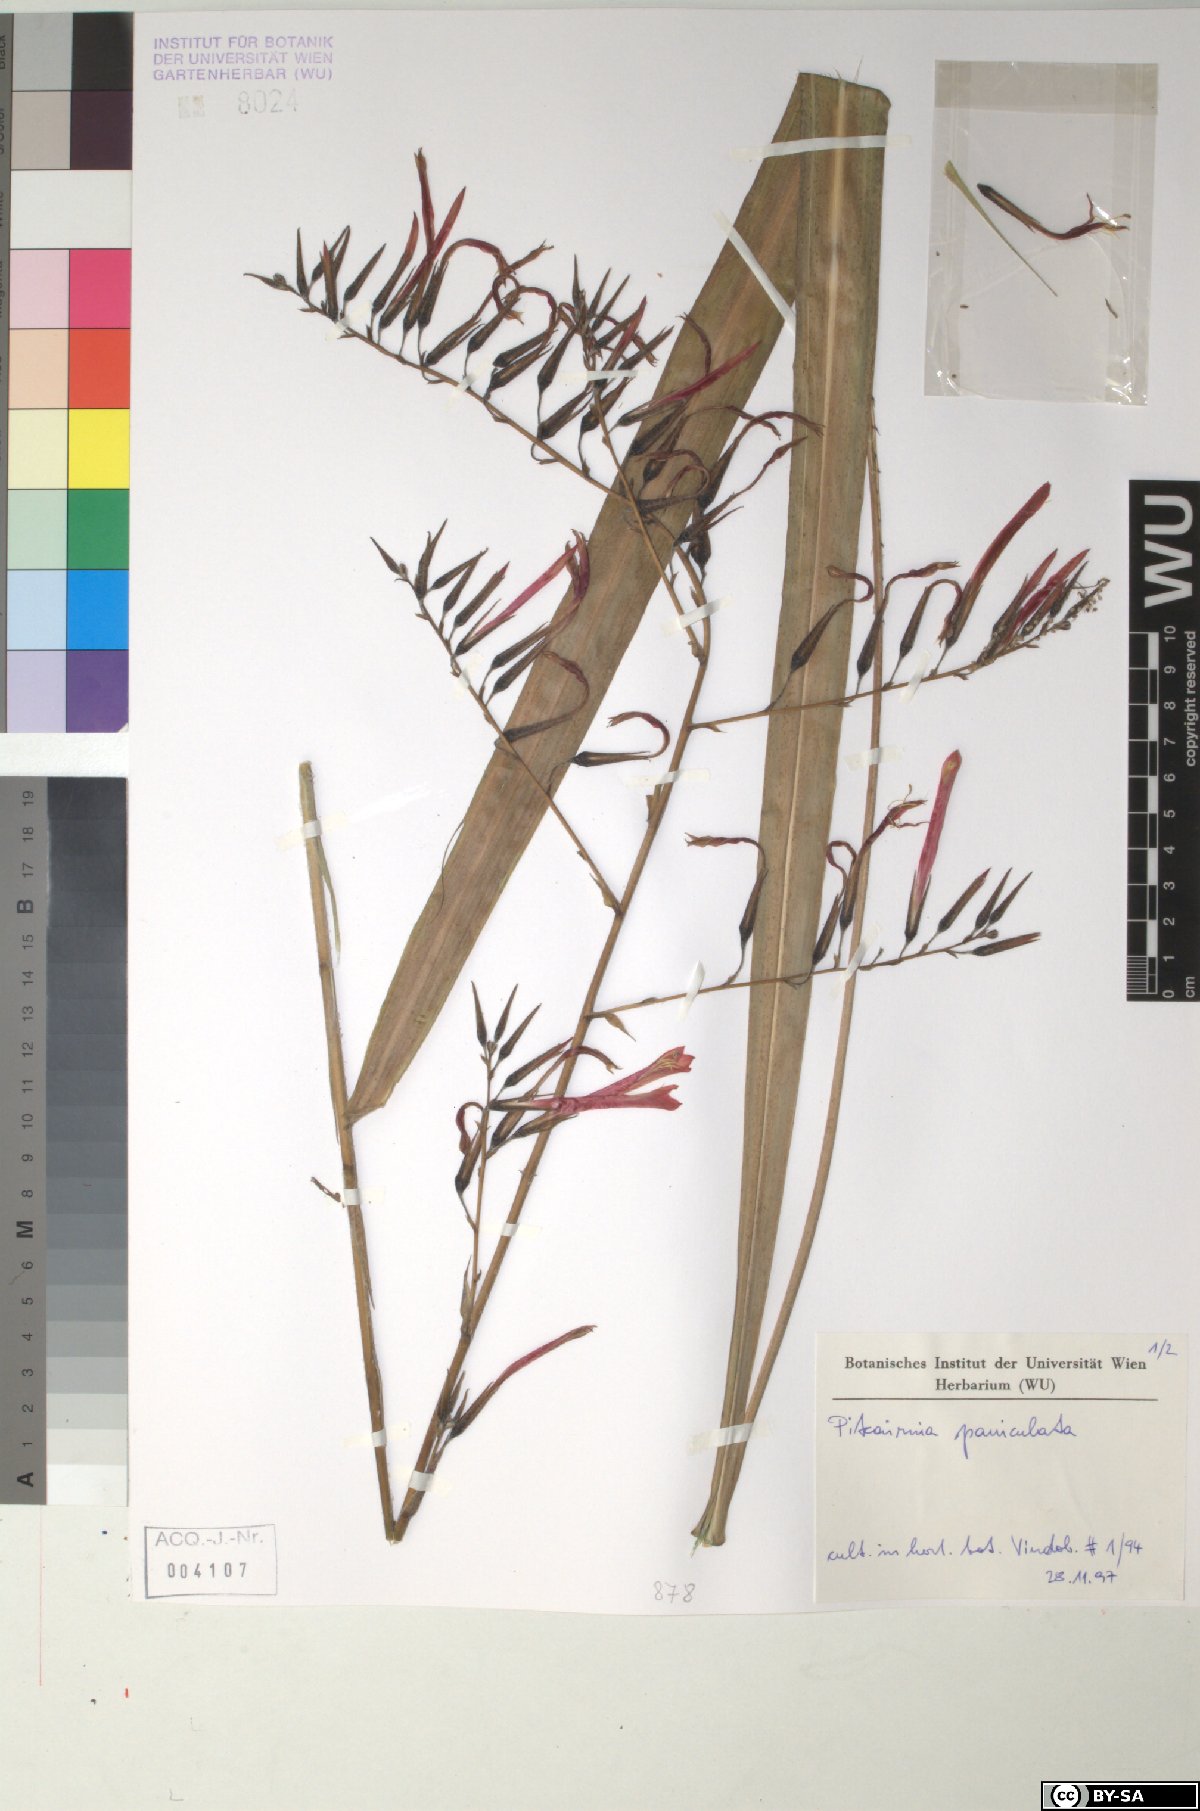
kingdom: Plantae
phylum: Tracheophyta
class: Liliopsida
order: Poales
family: Bromeliaceae
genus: Pitcairnia
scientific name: Pitcairnia paniculata
